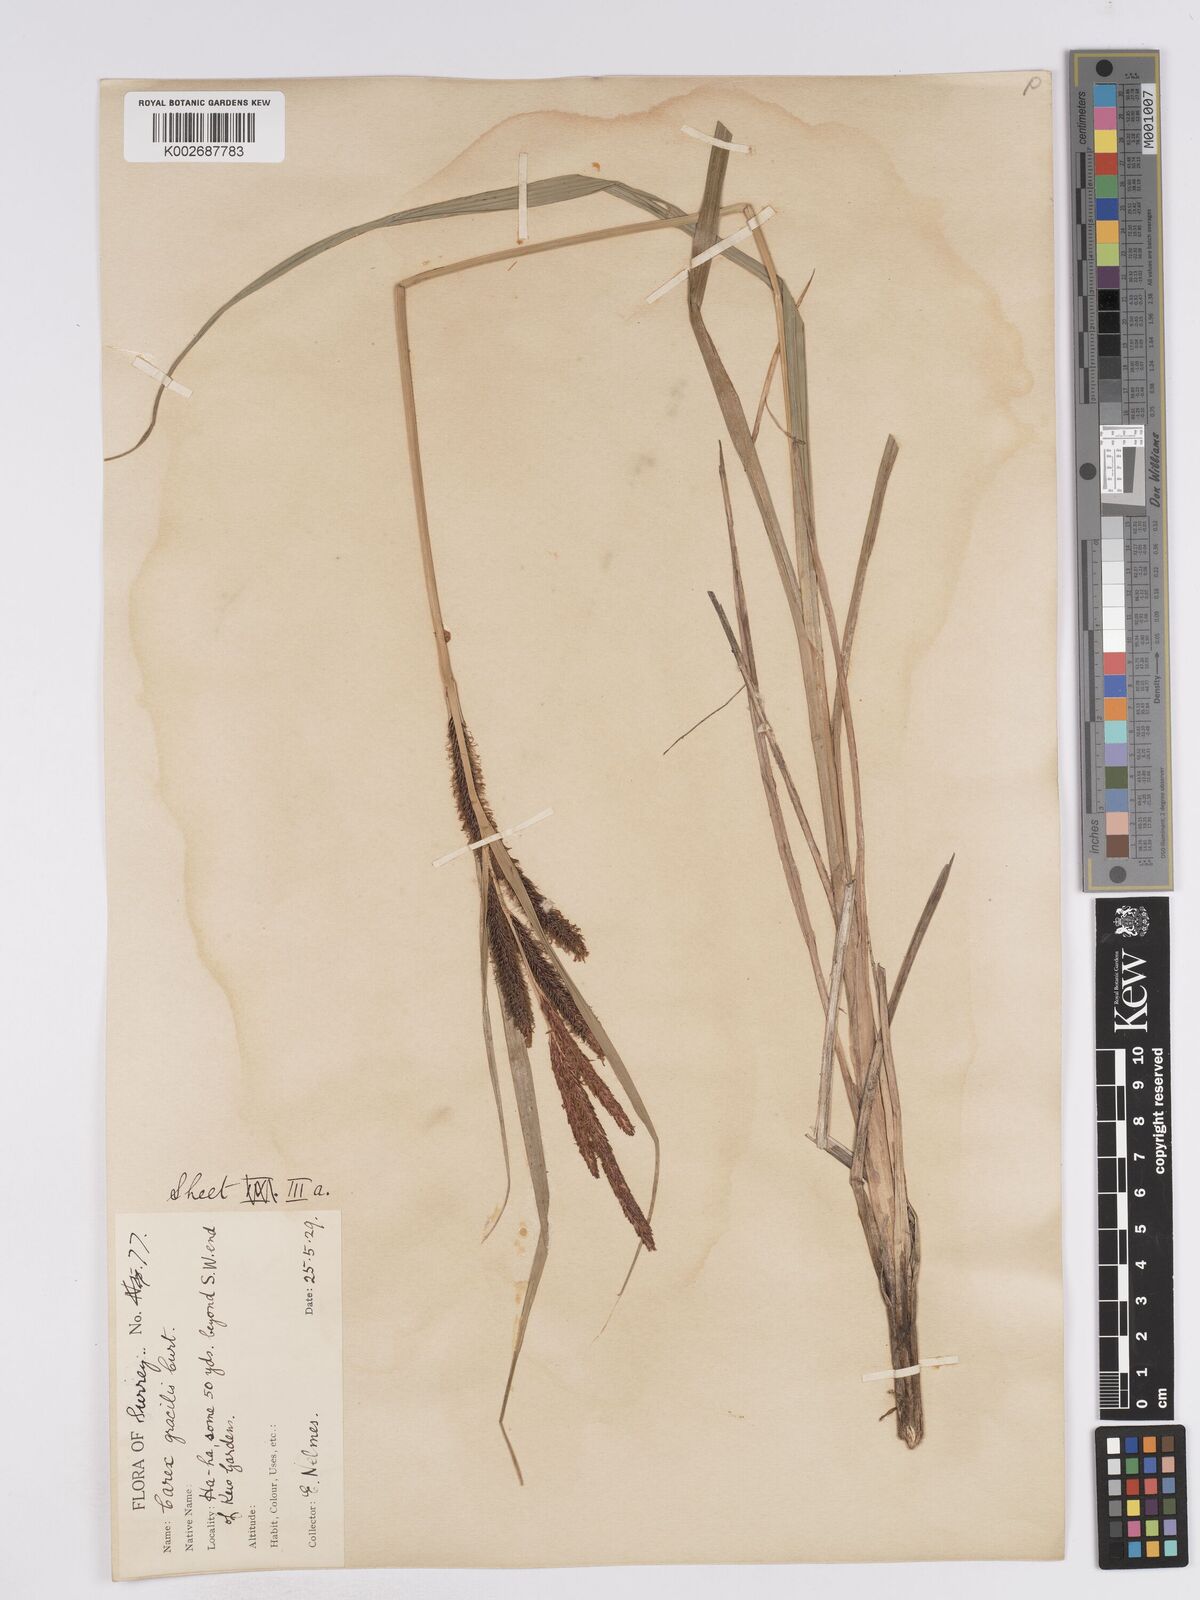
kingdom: Plantae
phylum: Tracheophyta
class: Liliopsida
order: Poales
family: Cyperaceae
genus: Carex
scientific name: Carex acuta
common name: Slender tufted-sedge
